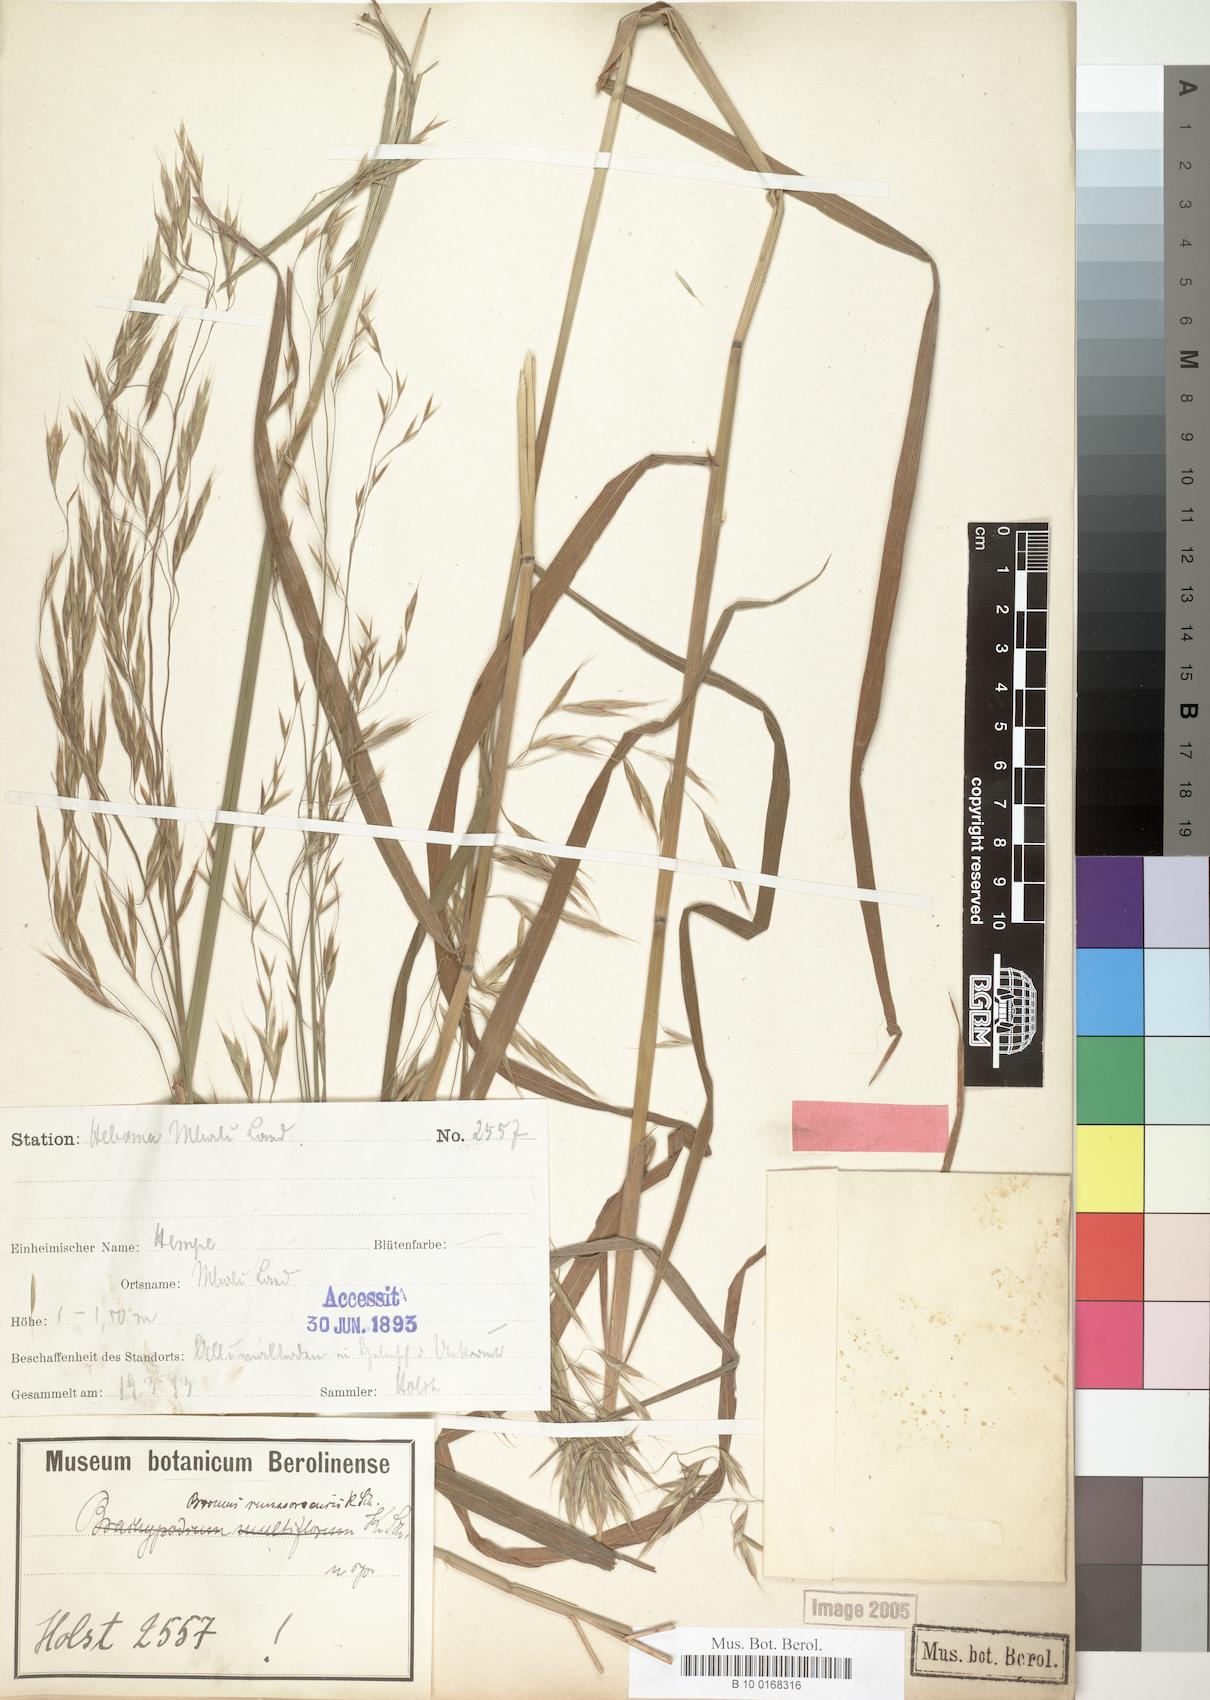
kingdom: Plantae
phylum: Tracheophyta
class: Liliopsida
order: Poales
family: Poaceae
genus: Bromus
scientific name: Bromus leptoclados
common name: Mountain bromegrass
